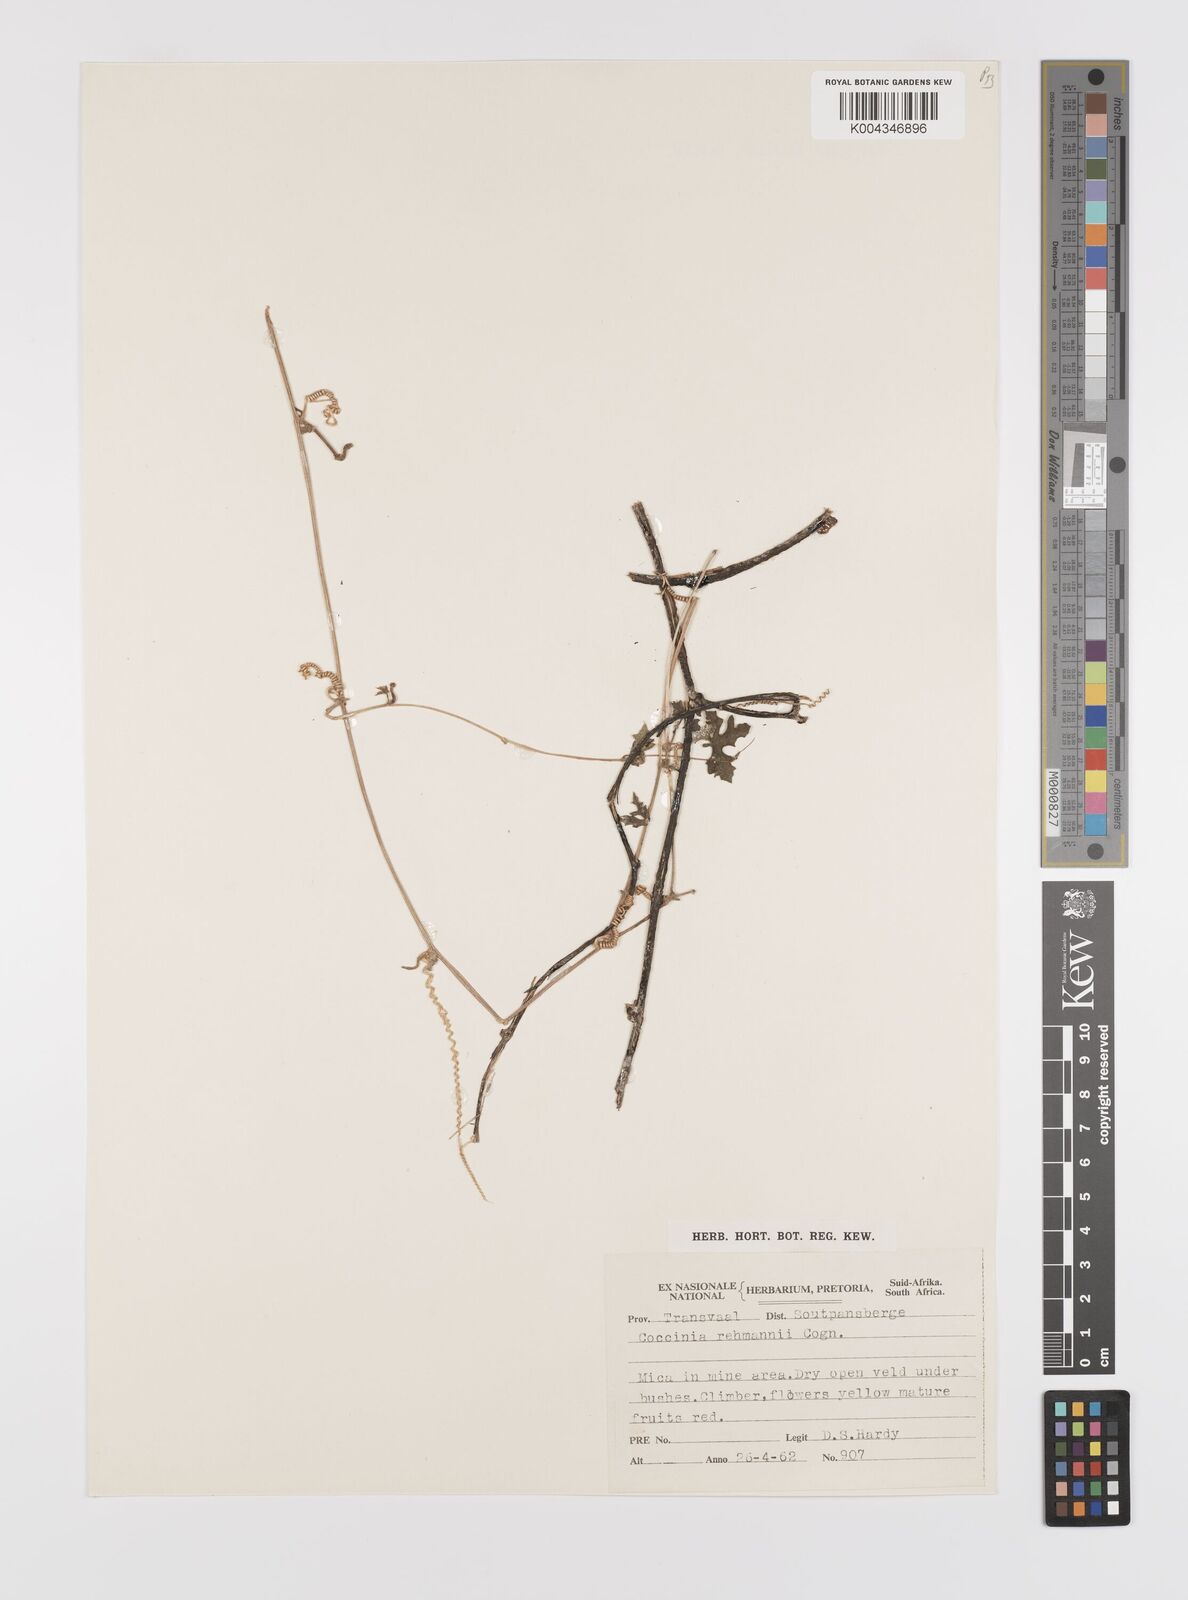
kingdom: Plantae
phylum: Tracheophyta
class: Magnoliopsida
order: Cucurbitales
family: Cucurbitaceae
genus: Coccinia
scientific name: Coccinia rehmannii
